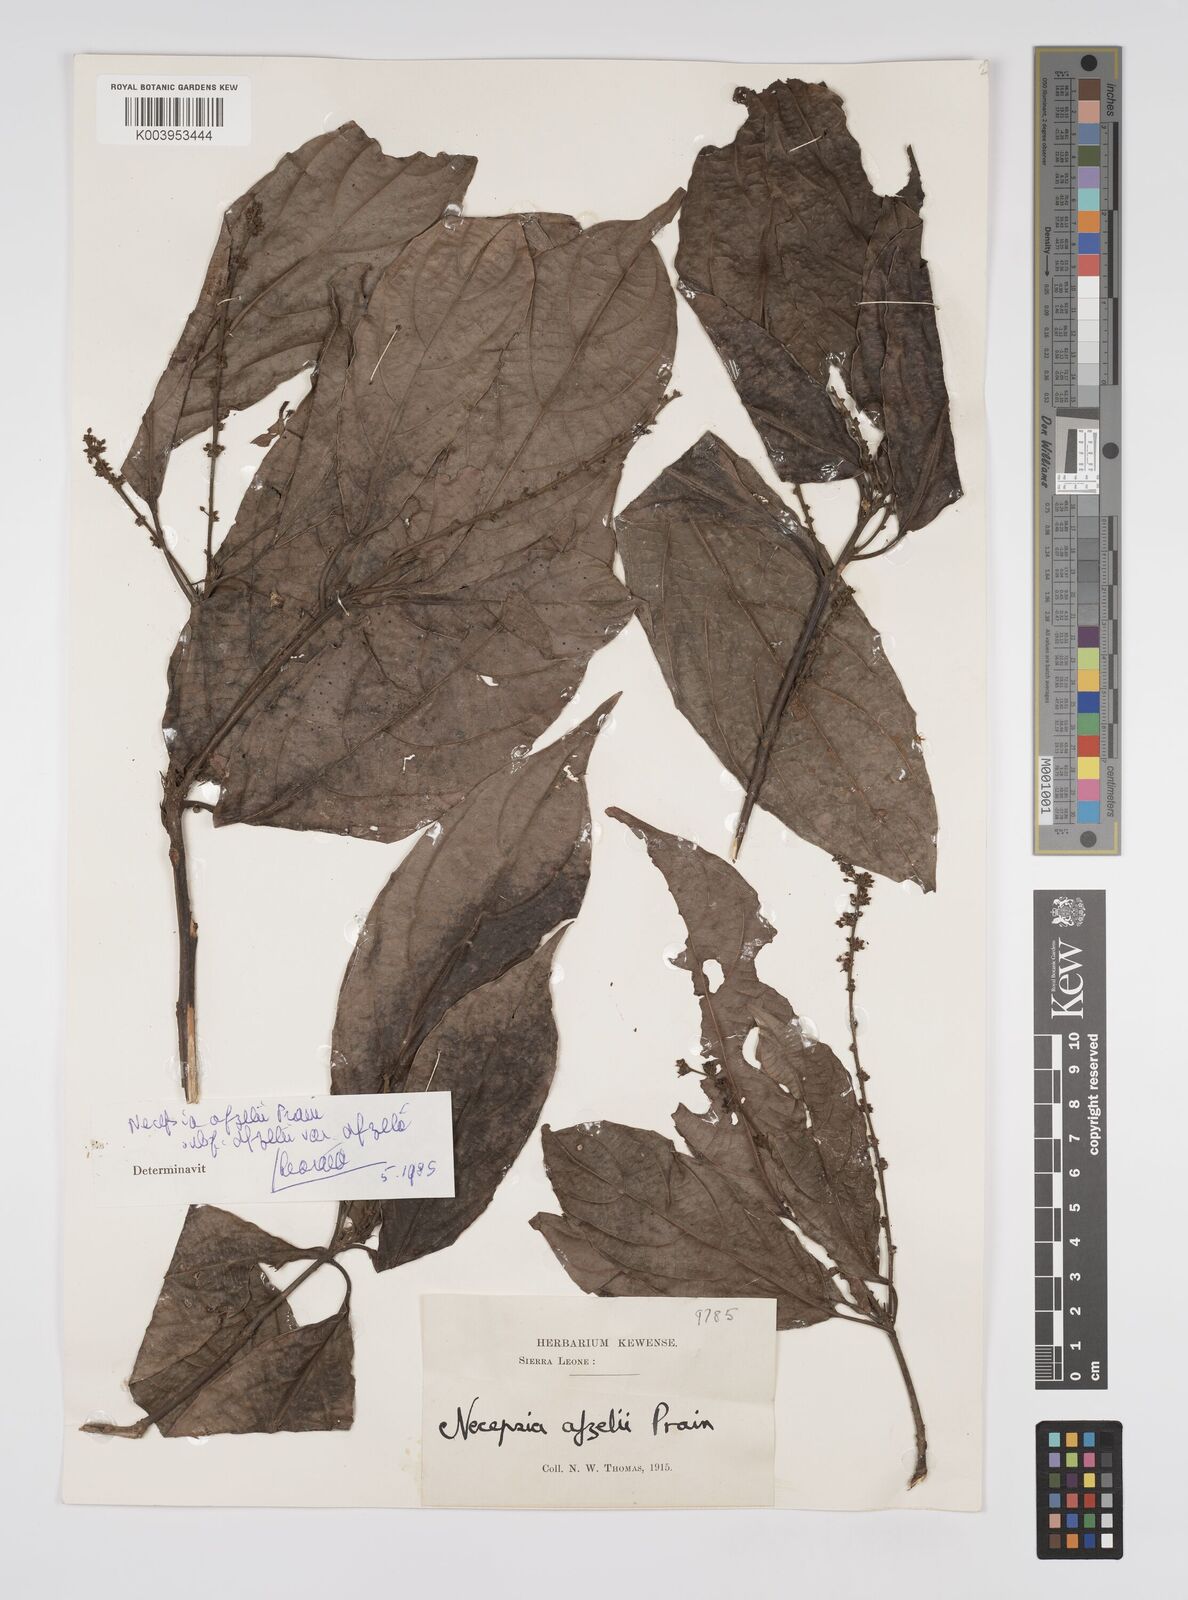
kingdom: Plantae
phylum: Tracheophyta
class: Magnoliopsida
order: Malpighiales
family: Euphorbiaceae
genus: Necepsia
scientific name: Necepsia afzelii
